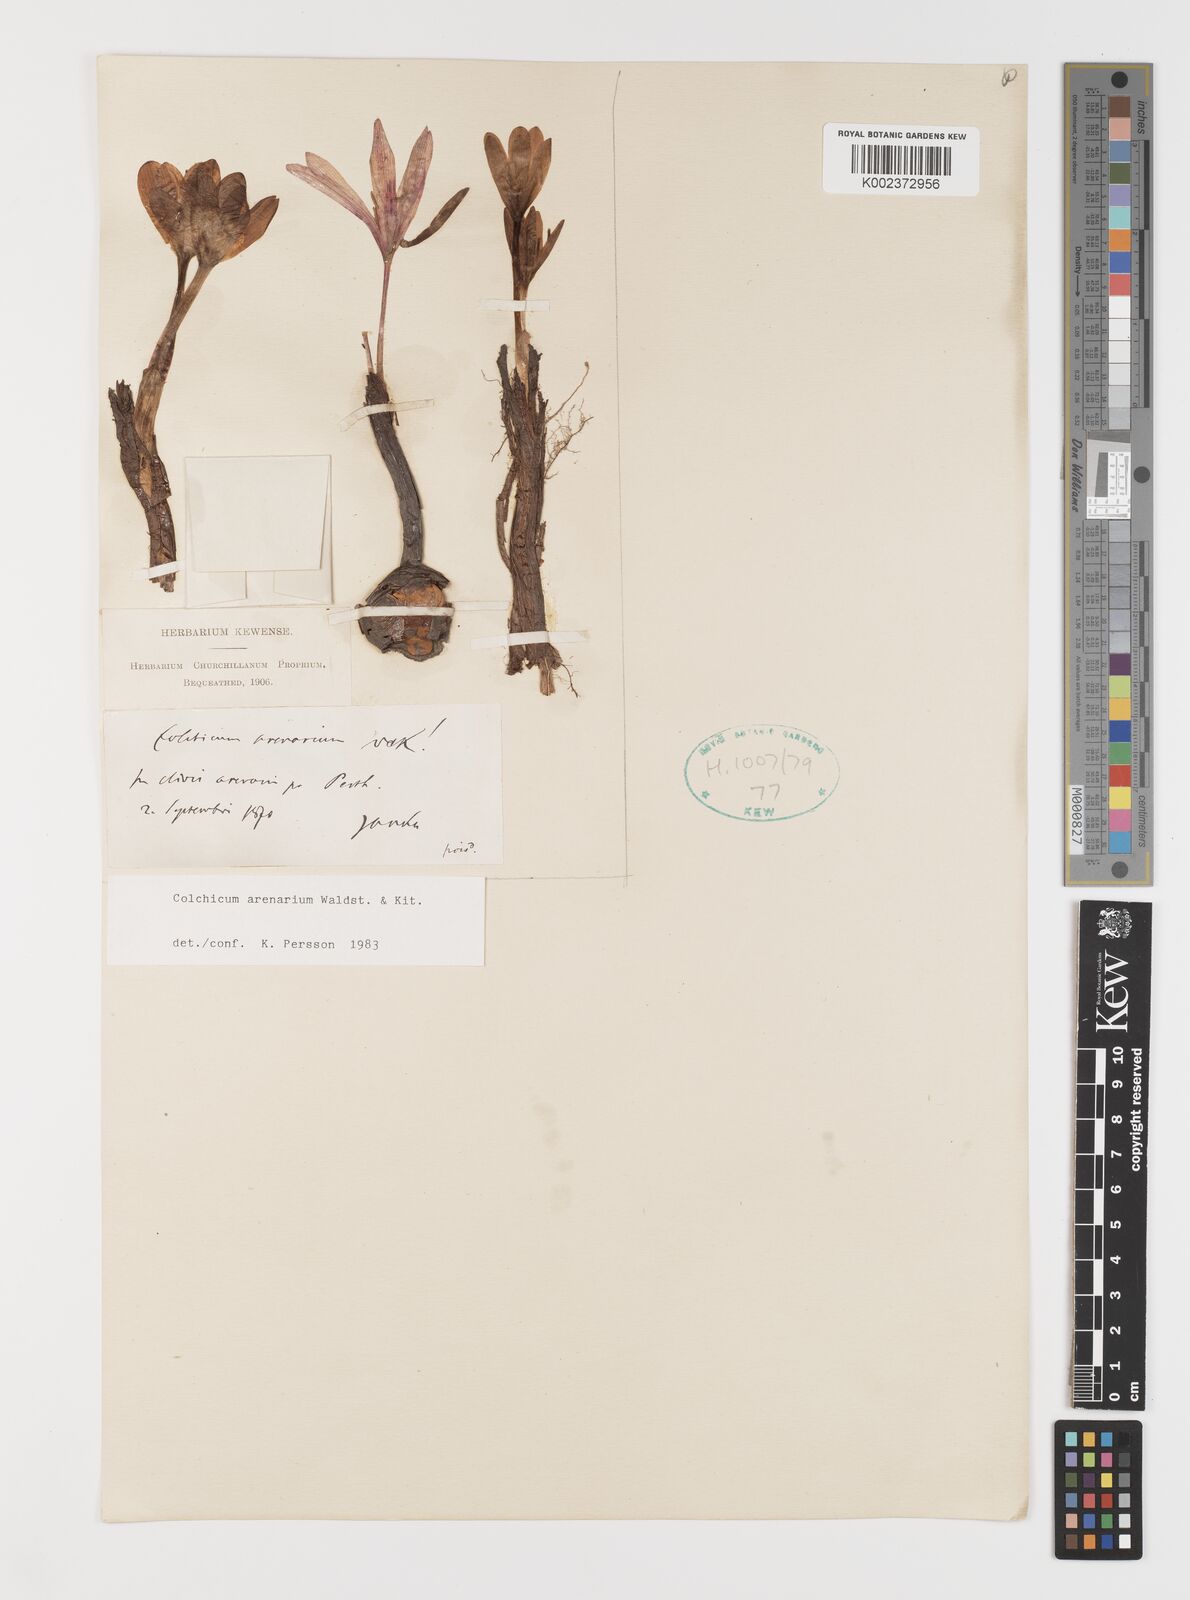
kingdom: Plantae
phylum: Tracheophyta
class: Liliopsida
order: Liliales
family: Colchicaceae
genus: Colchicum
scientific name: Colchicum arenarium
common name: Sand saffron
